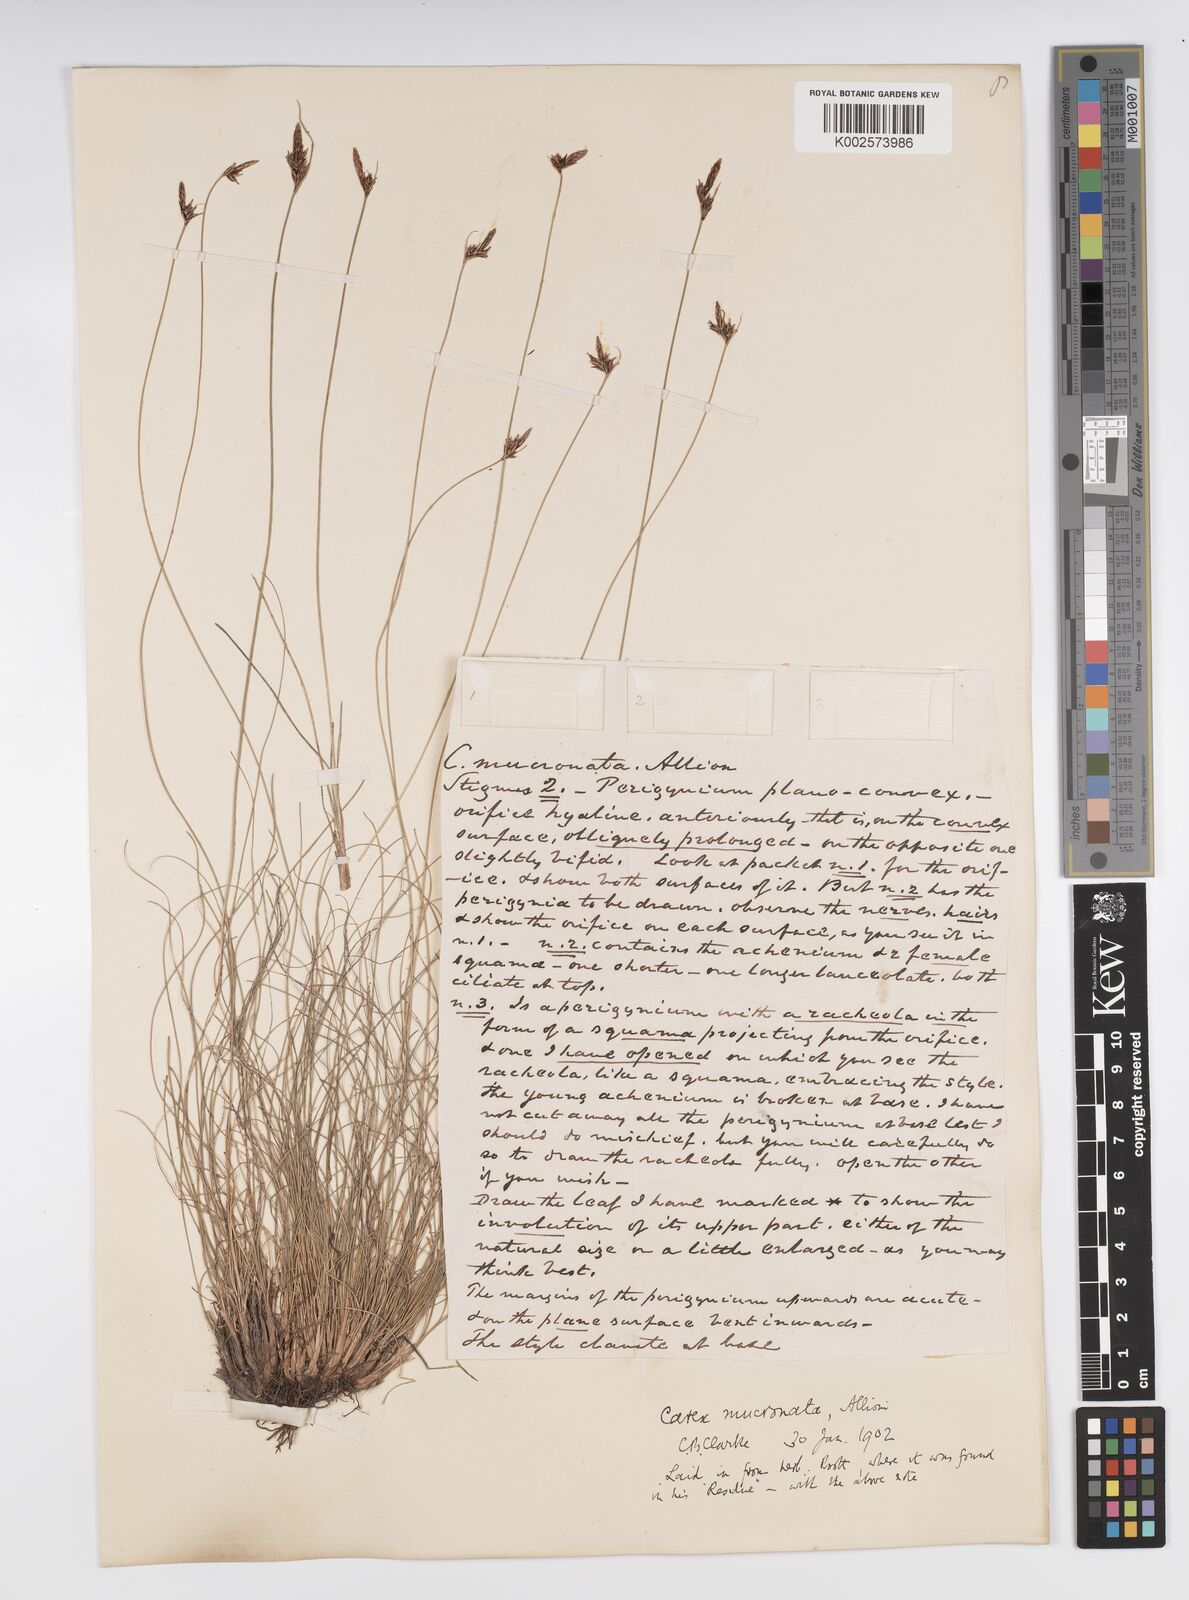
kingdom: Plantae
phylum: Tracheophyta
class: Liliopsida
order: Poales
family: Cyperaceae
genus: Carex
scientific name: Carex mucronata
